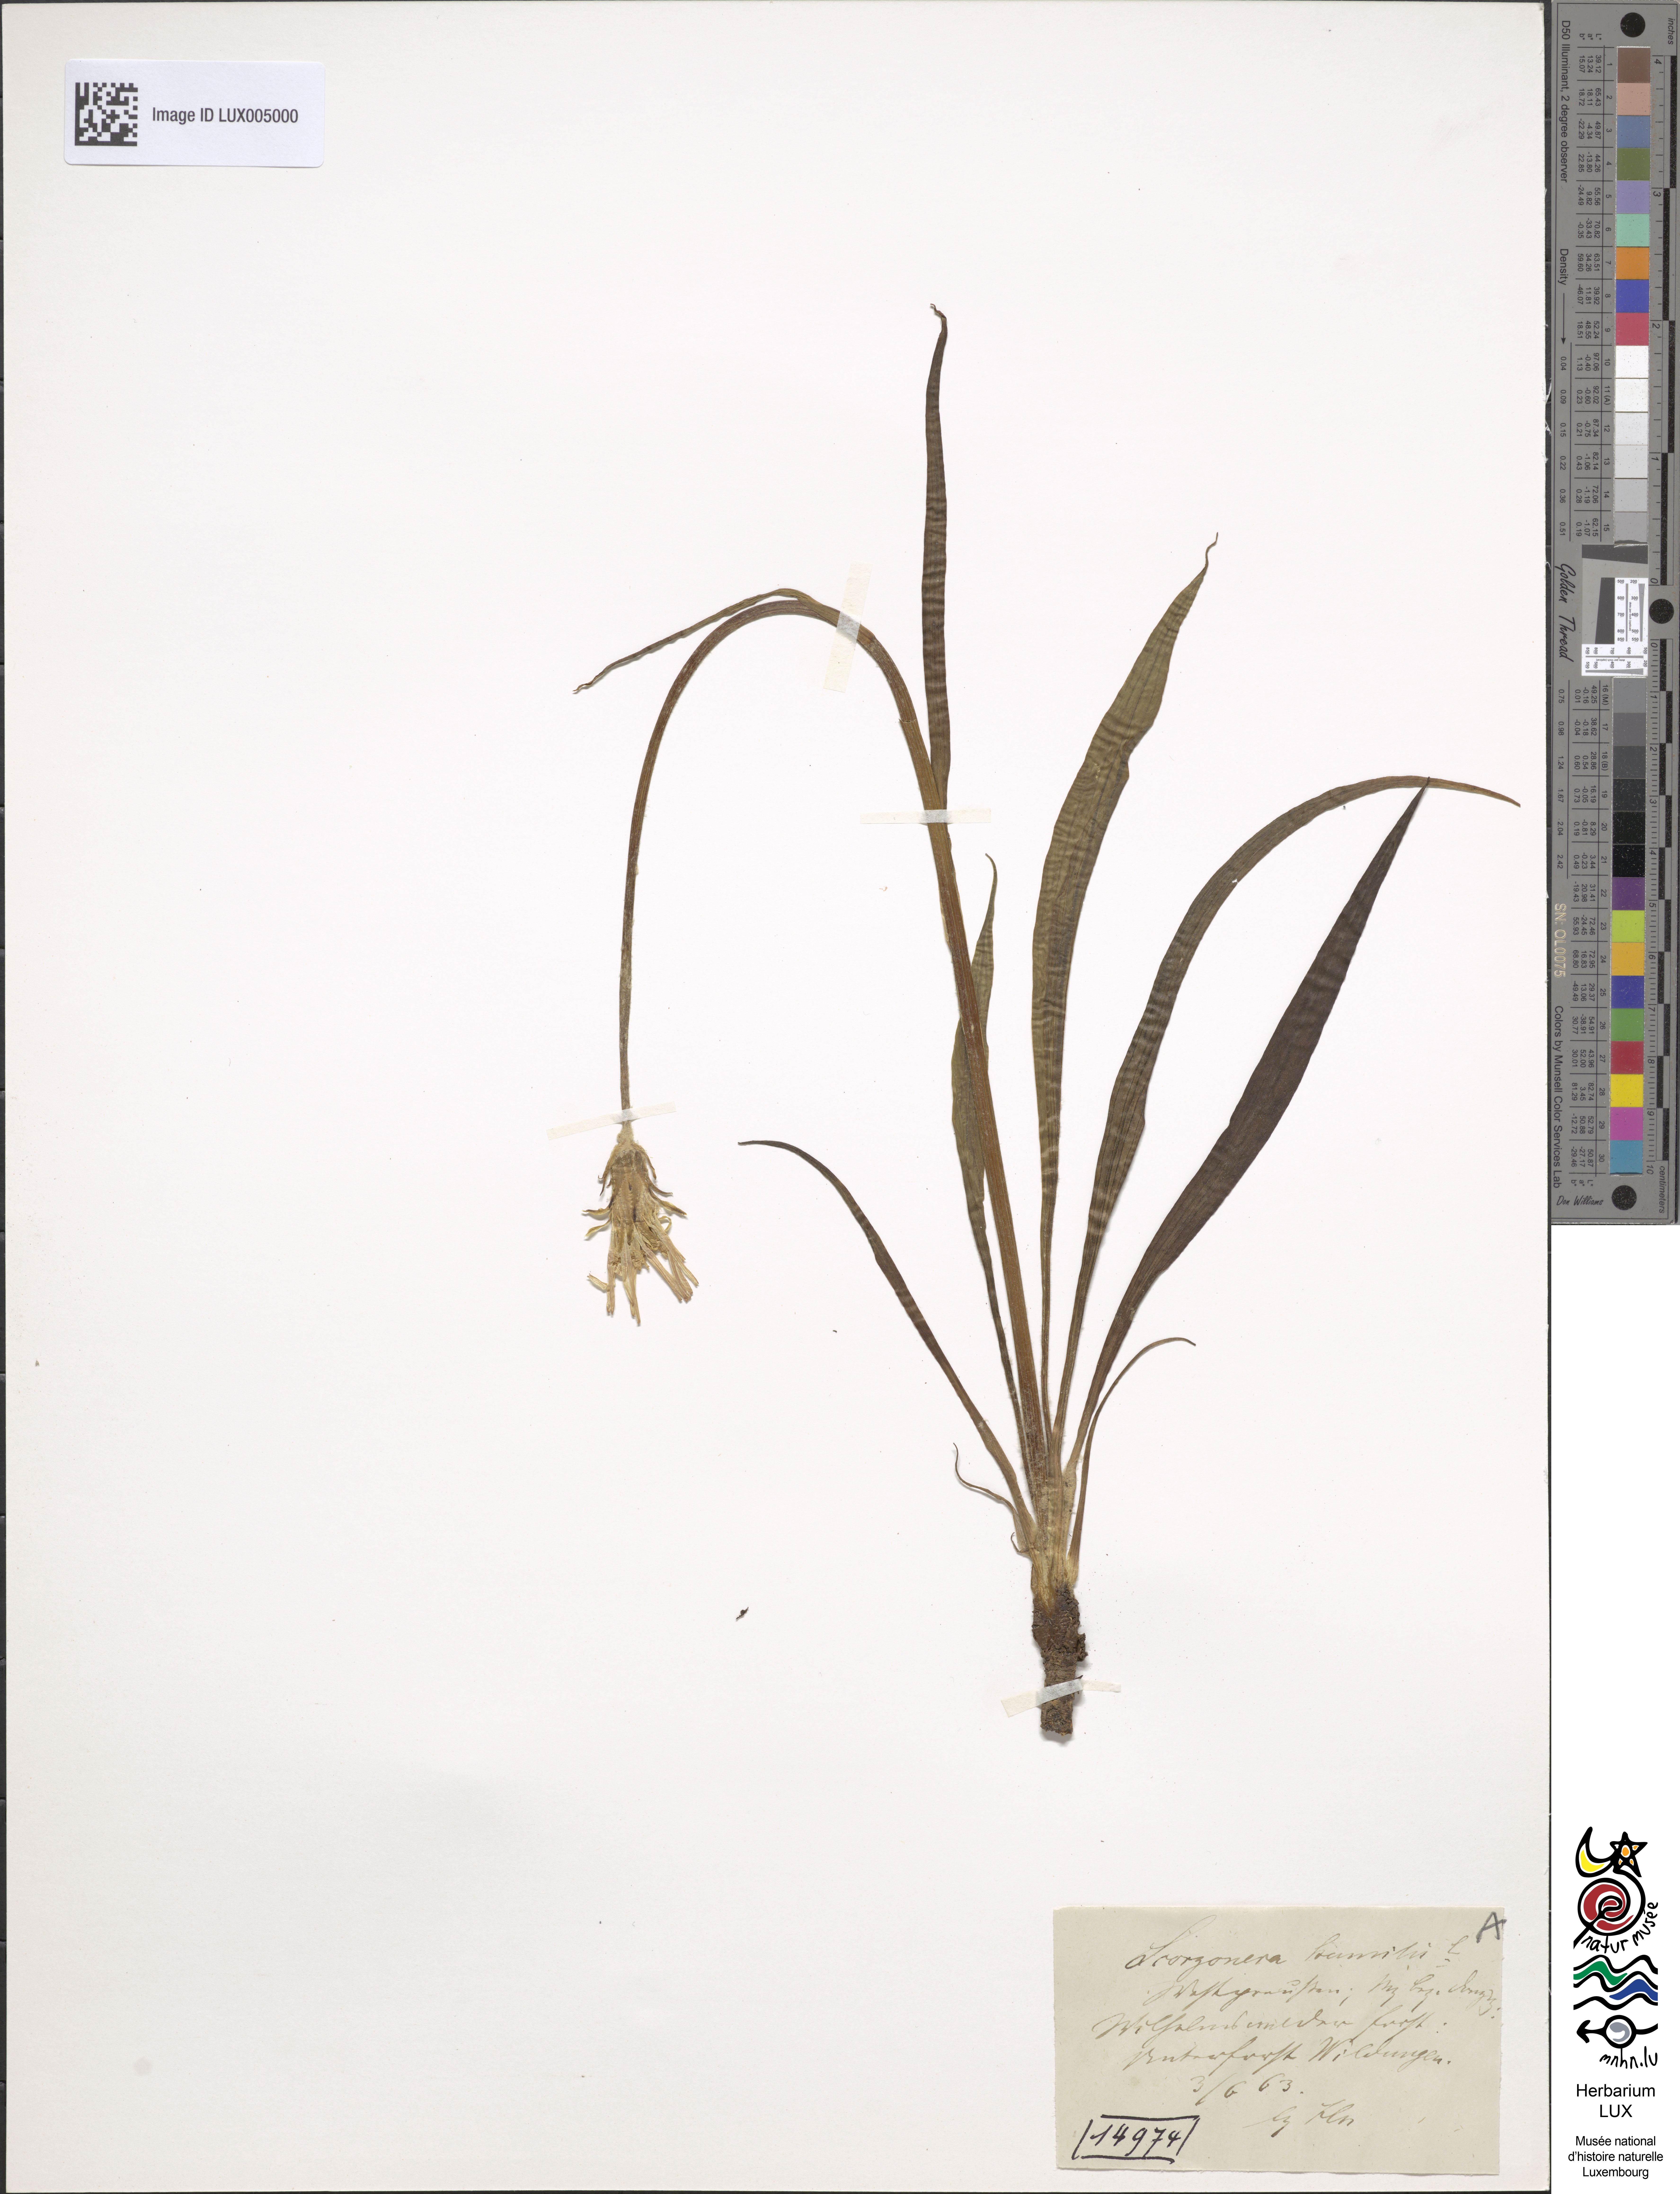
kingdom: Plantae
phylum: Tracheophyta
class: Magnoliopsida
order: Asterales
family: Asteraceae
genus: Scorzonera
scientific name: Scorzonera humilis
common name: Viper's-grass
